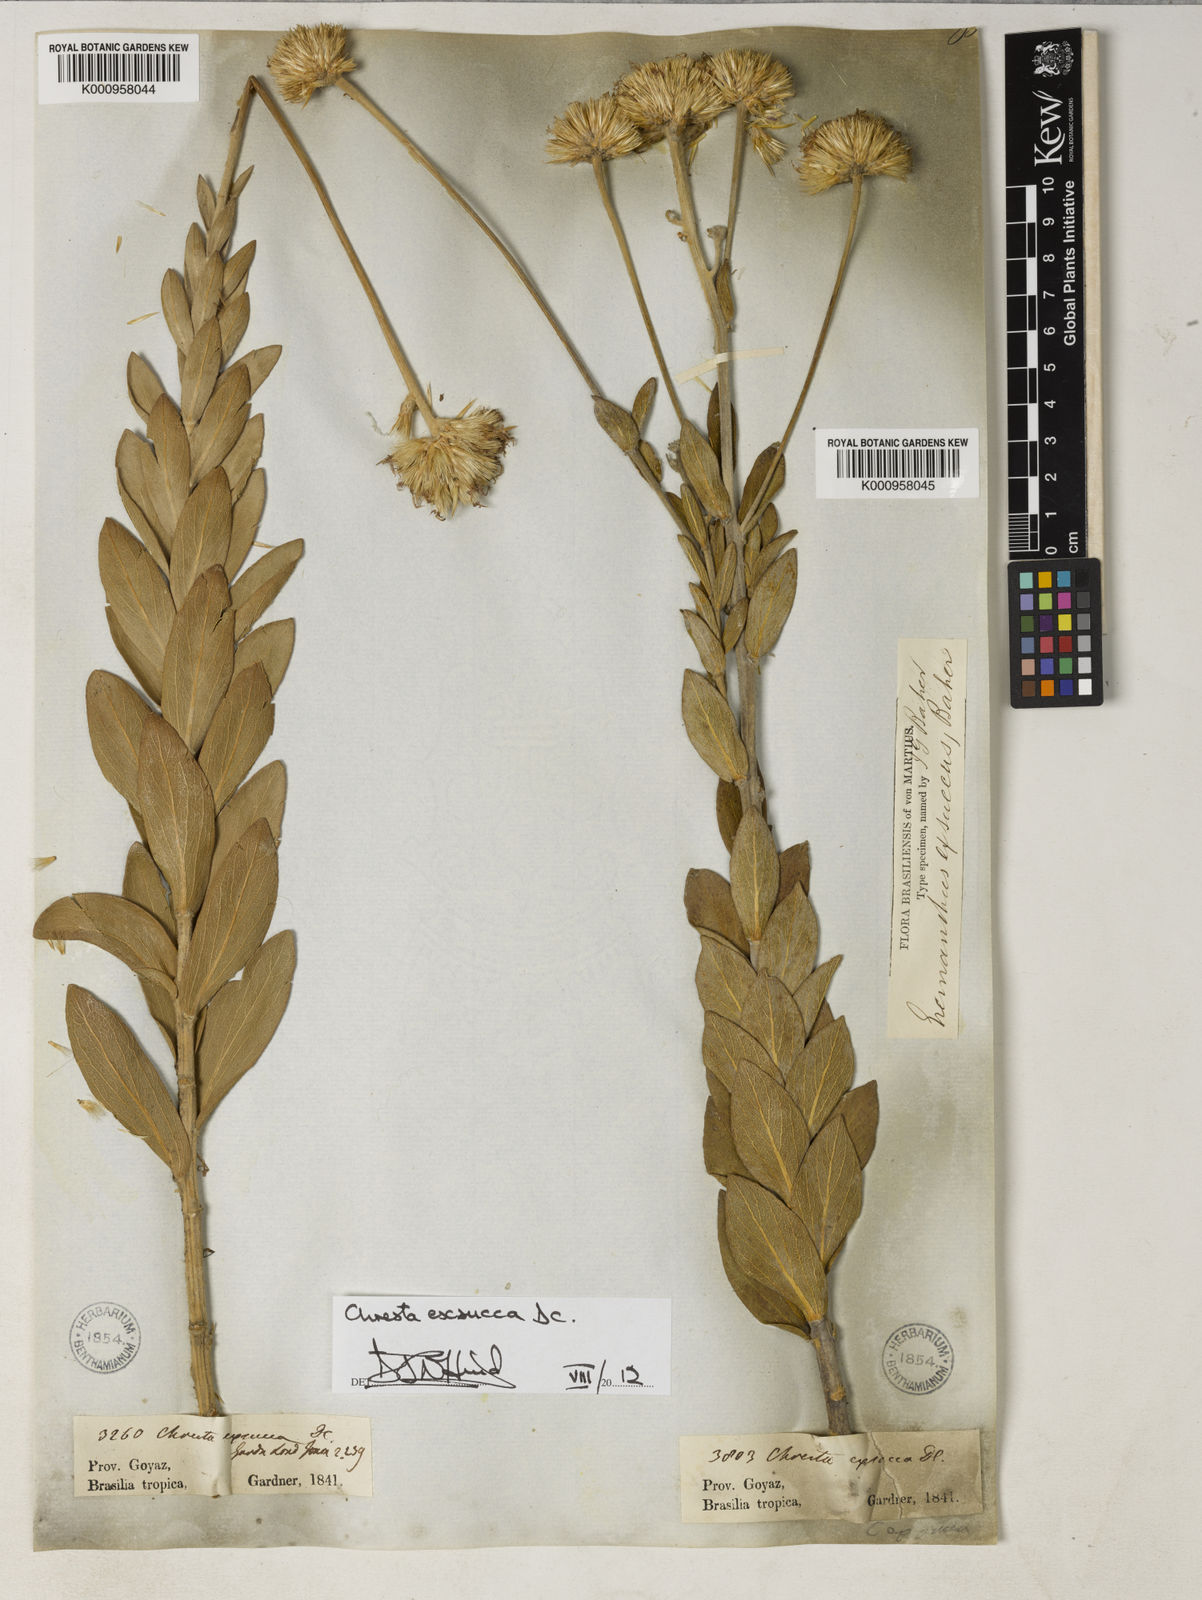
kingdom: Plantae
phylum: Tracheophyta
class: Magnoliopsida
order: Asterales
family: Asteraceae
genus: Chresta
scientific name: Chresta exsucca
